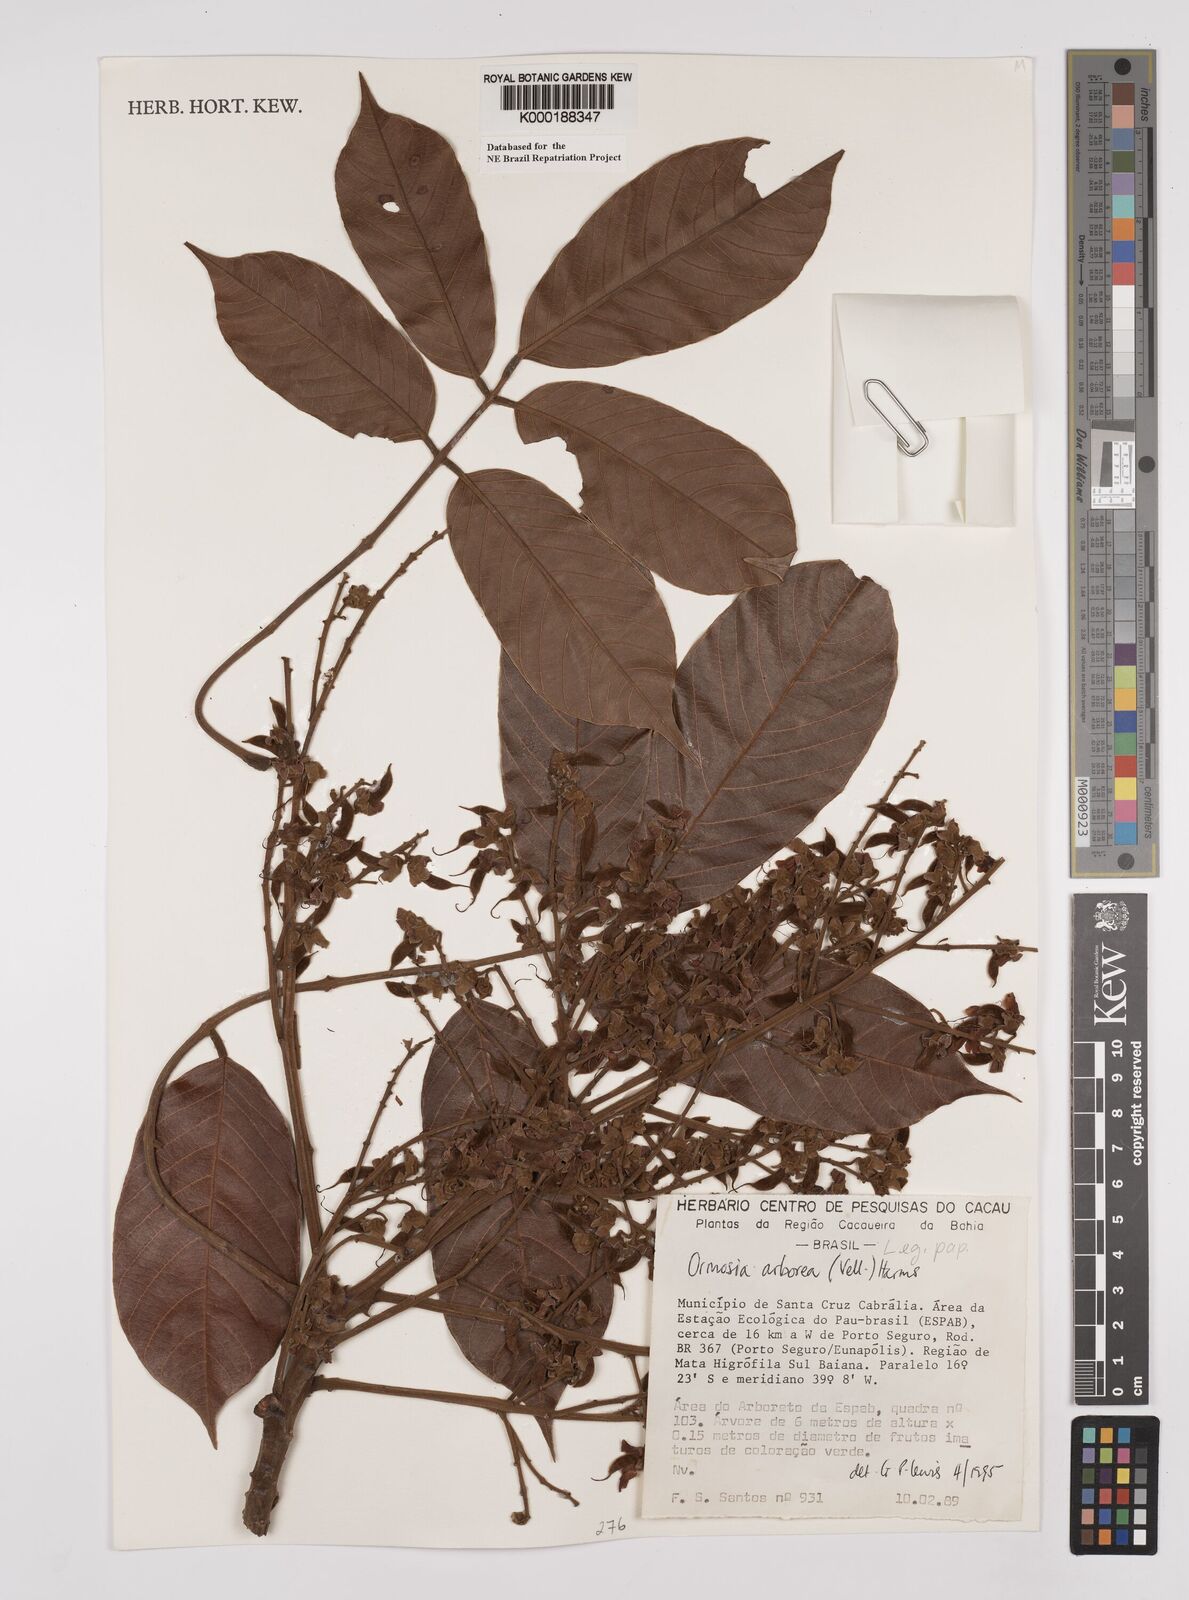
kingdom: Plantae
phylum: Tracheophyta
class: Magnoliopsida
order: Fabales
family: Fabaceae
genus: Ormosia
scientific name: Ormosia arborea
